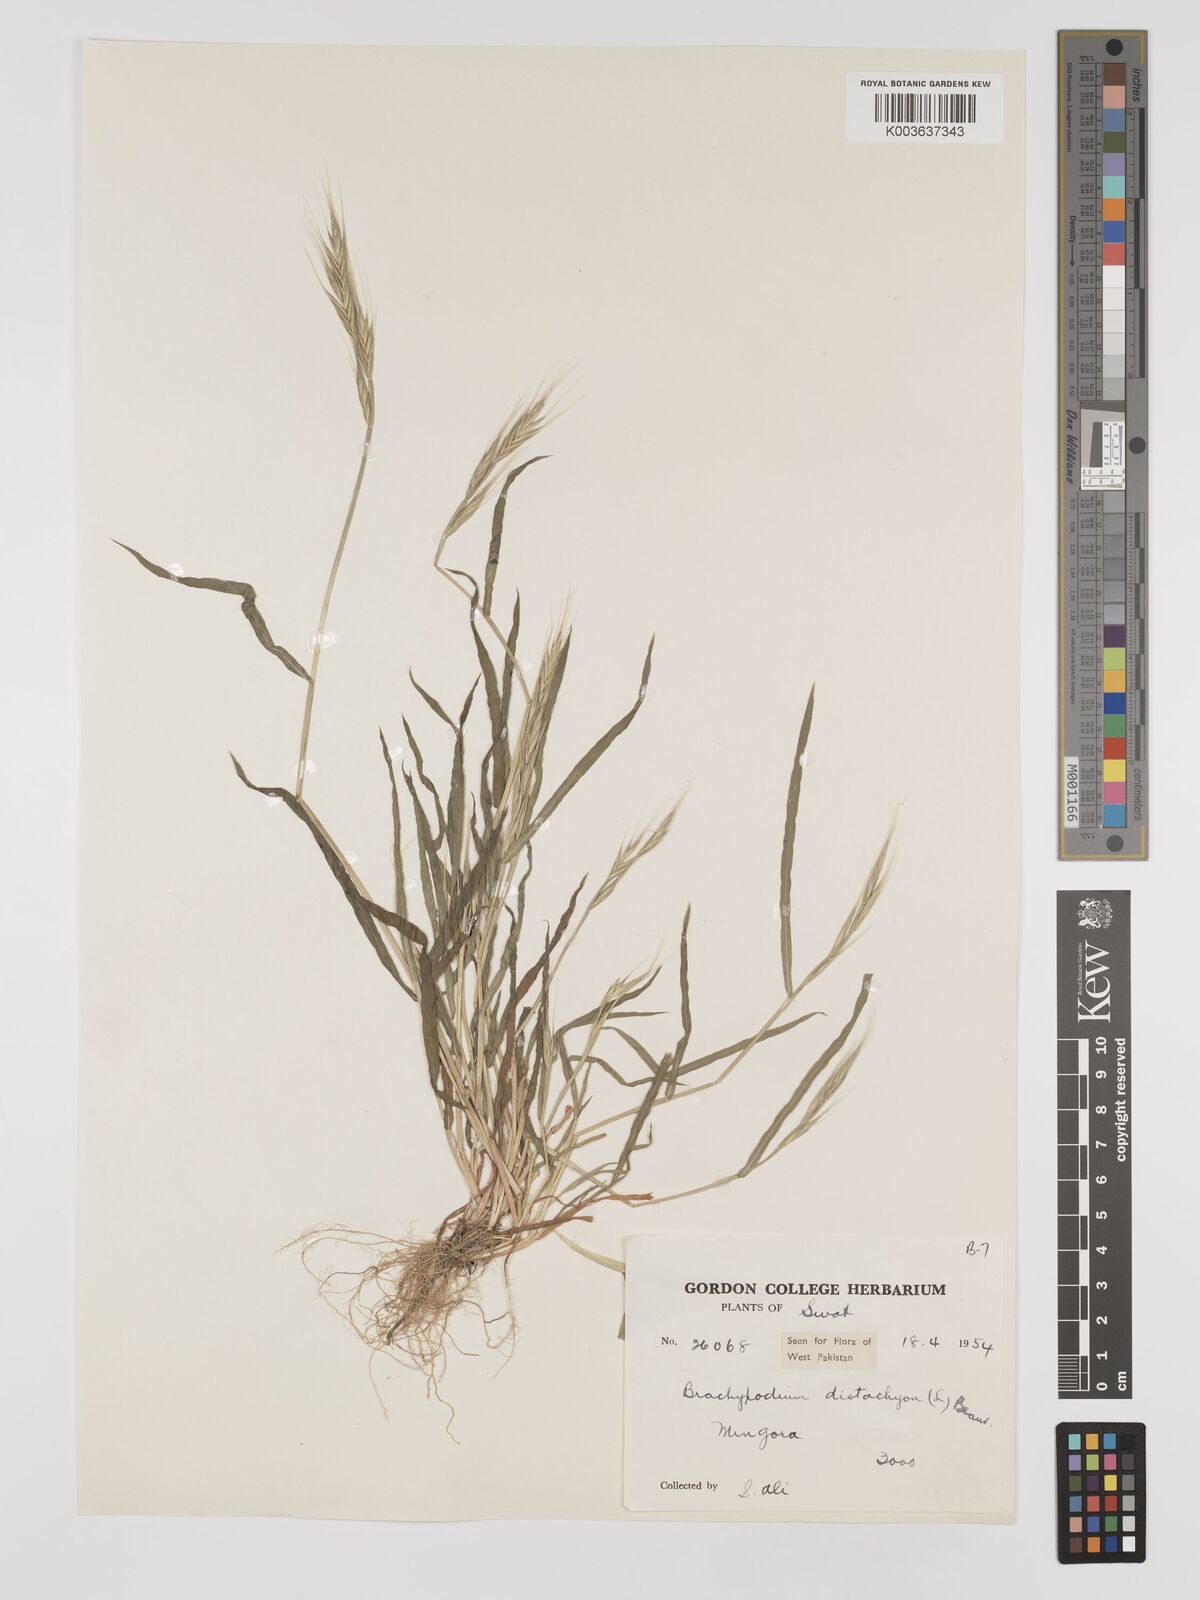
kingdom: Plantae
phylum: Tracheophyta
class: Liliopsida
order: Poales
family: Poaceae
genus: Brachypodium
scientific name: Brachypodium distachyon
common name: Stiff brome
